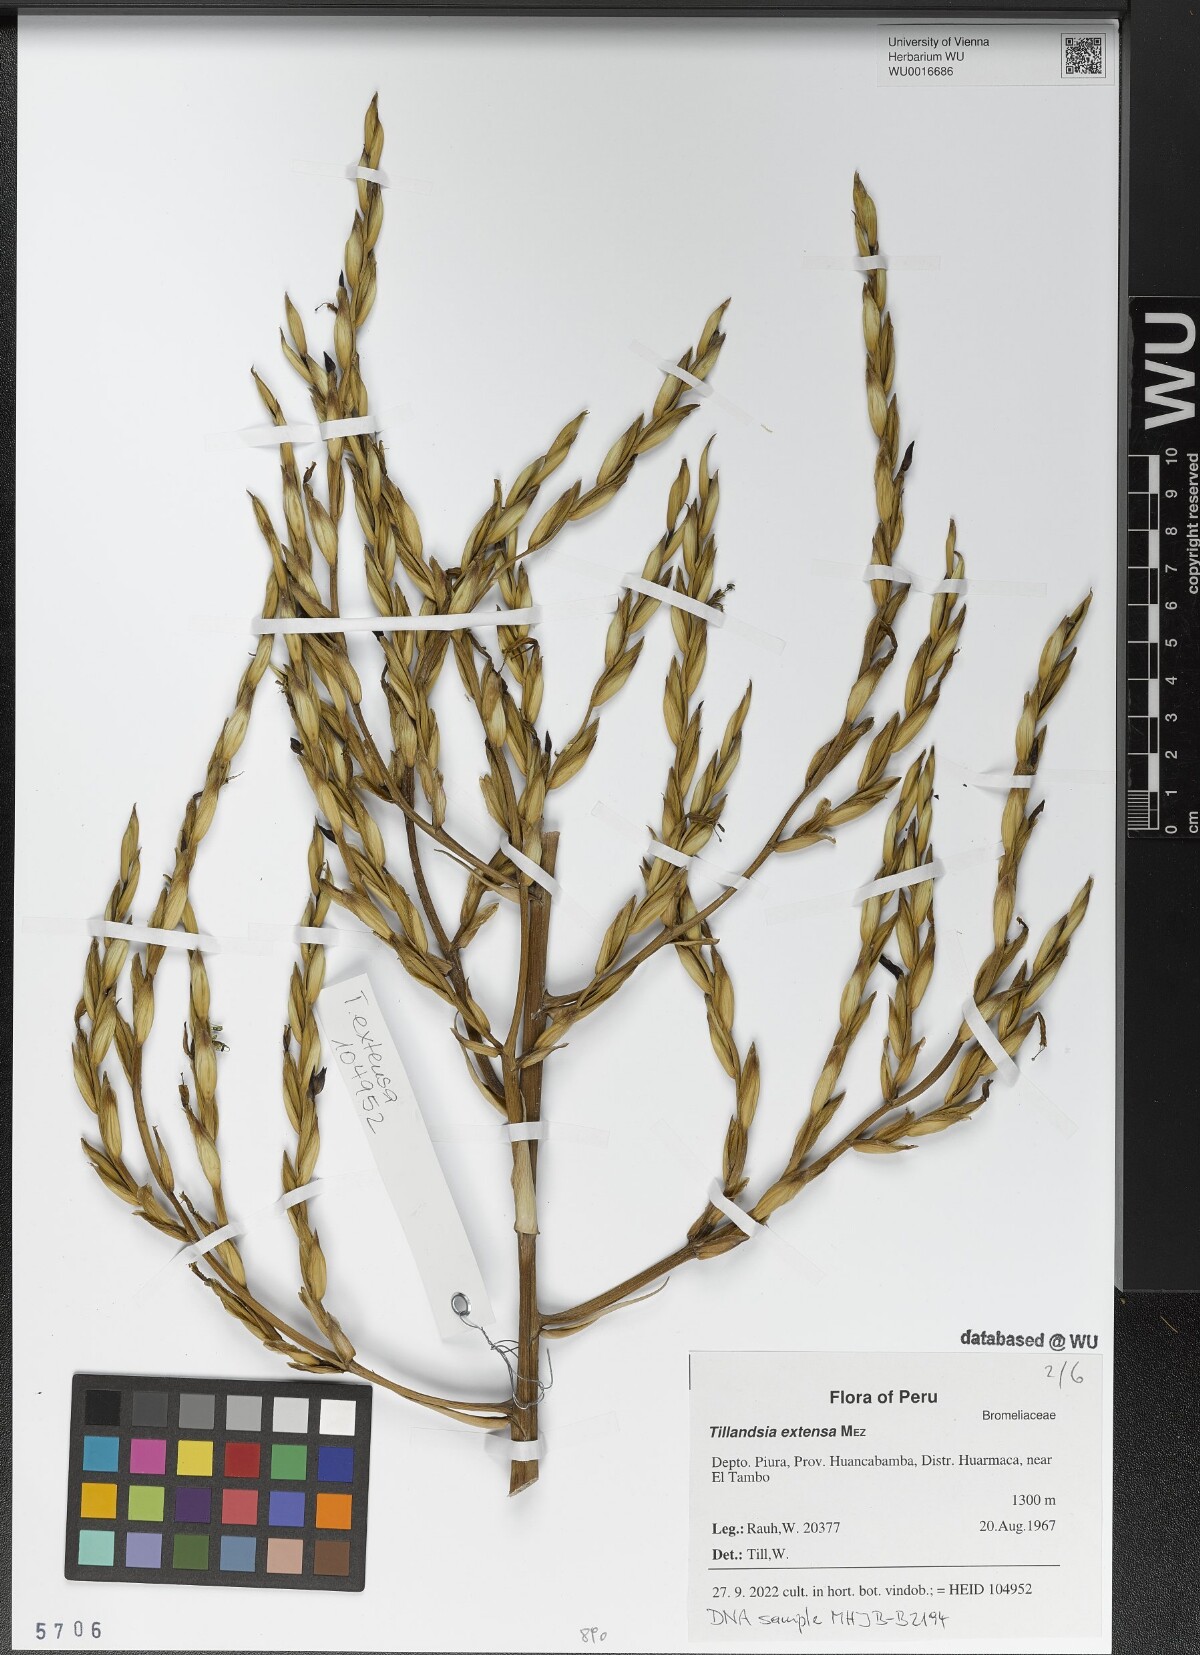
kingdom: Plantae
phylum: Tracheophyta
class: Liliopsida
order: Poales
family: Bromeliaceae
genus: Tillandsia
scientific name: Tillandsia extensa
